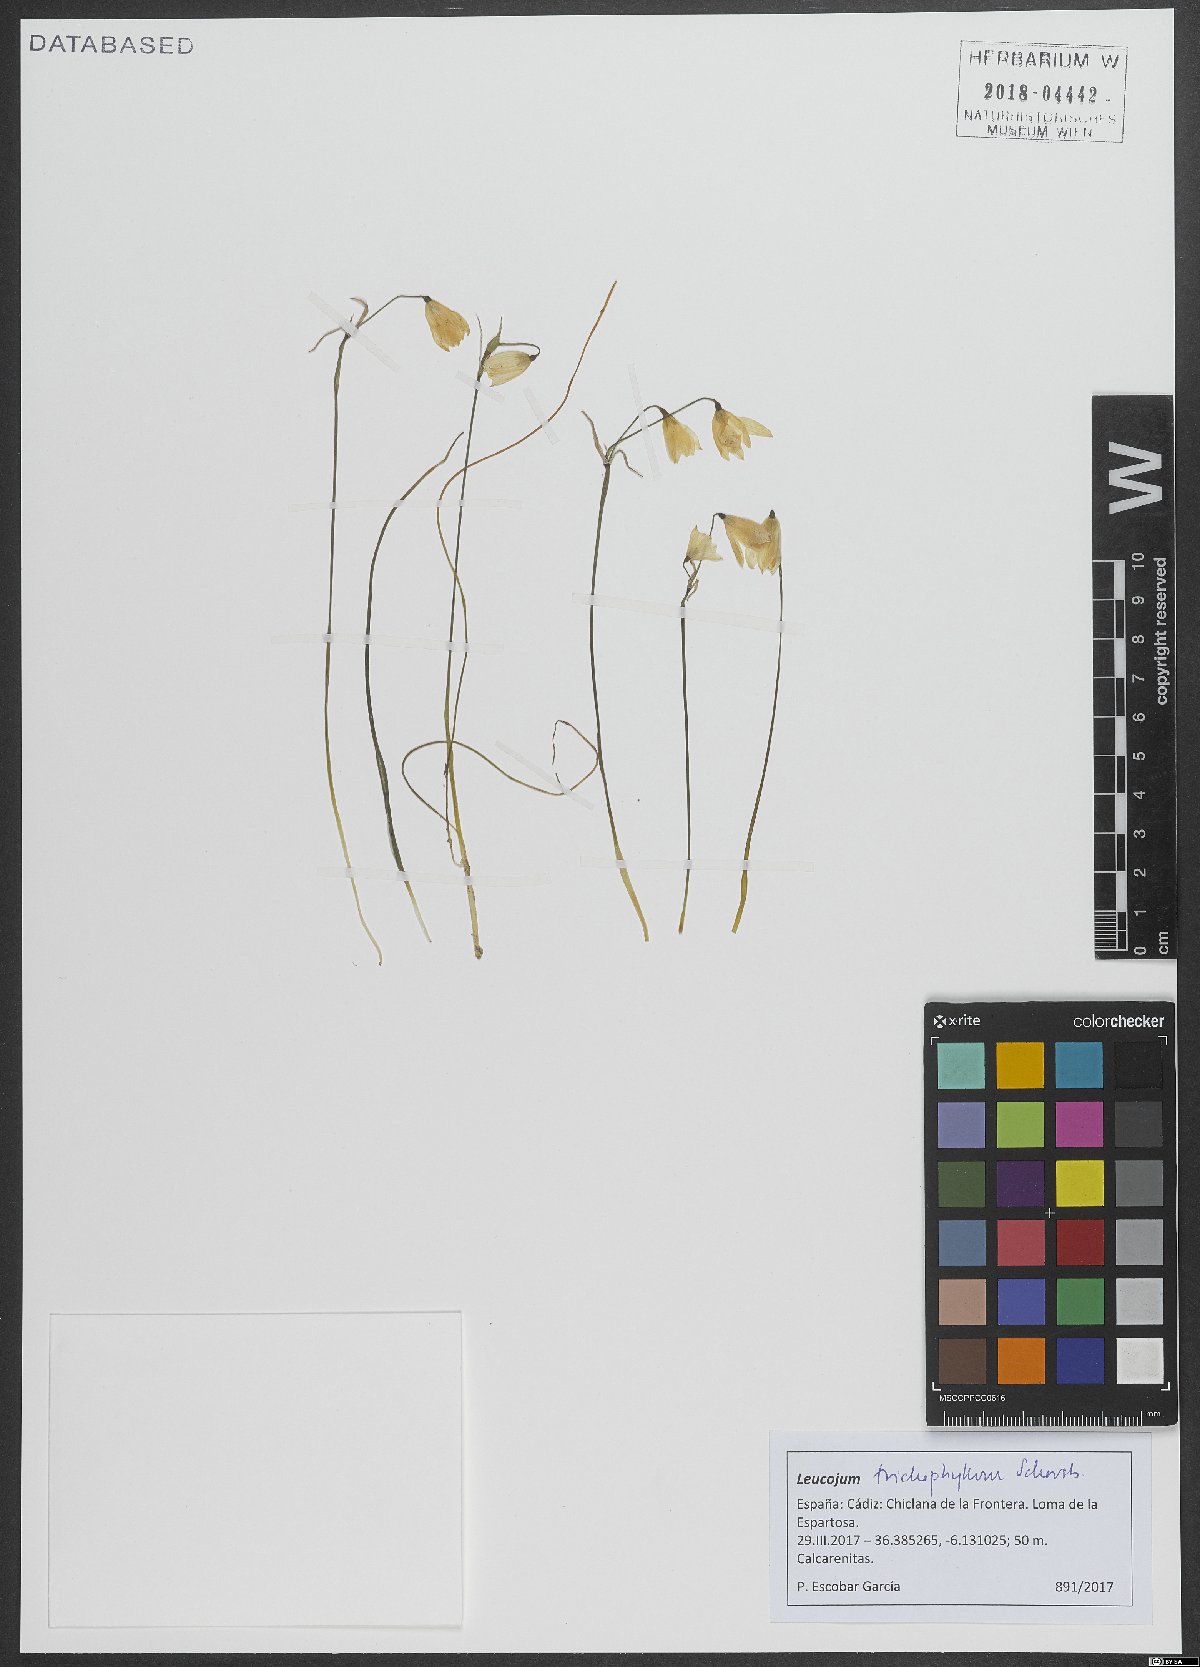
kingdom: Plantae
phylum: Tracheophyta
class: Liliopsida
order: Asparagales
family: Amaryllidaceae
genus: Acis
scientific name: Acis trichophylla
